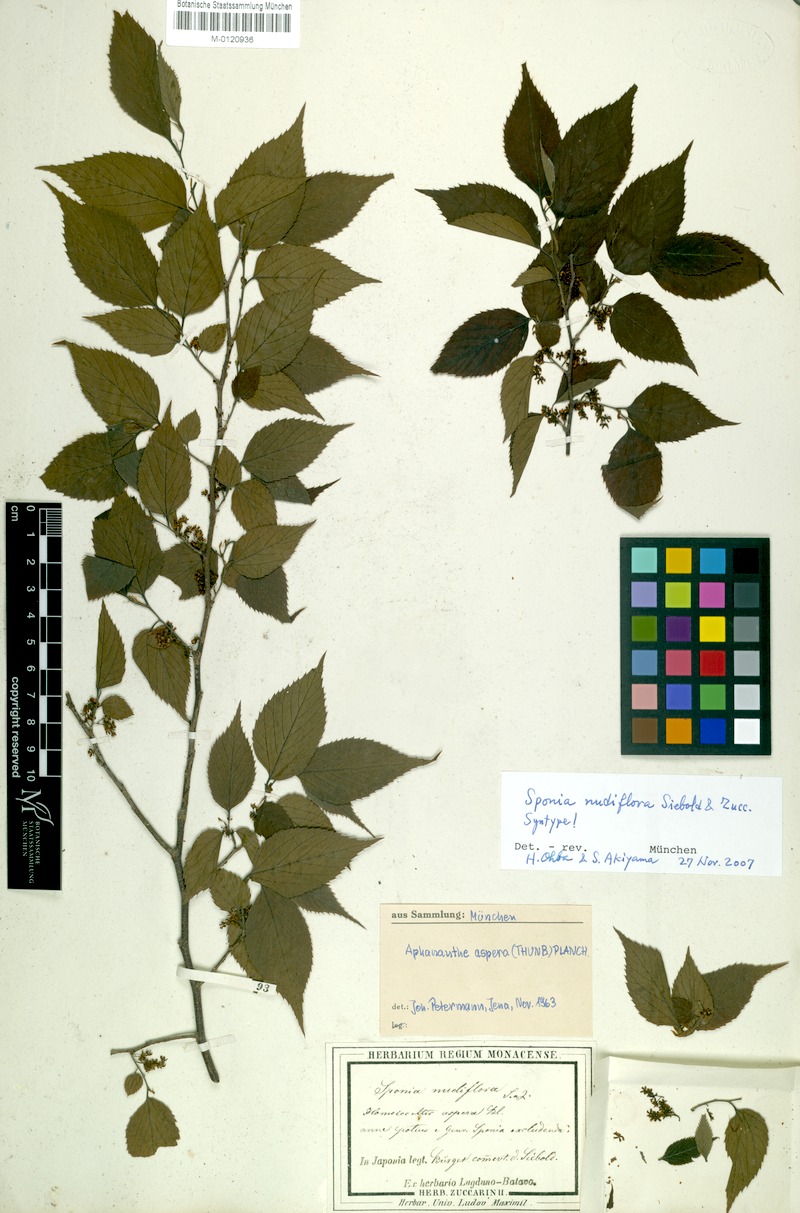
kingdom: Plantae
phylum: Tracheophyta
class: Magnoliopsida
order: Rosales
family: Cannabaceae
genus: Aphananthe
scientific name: Aphananthe aspera
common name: Mukutree
